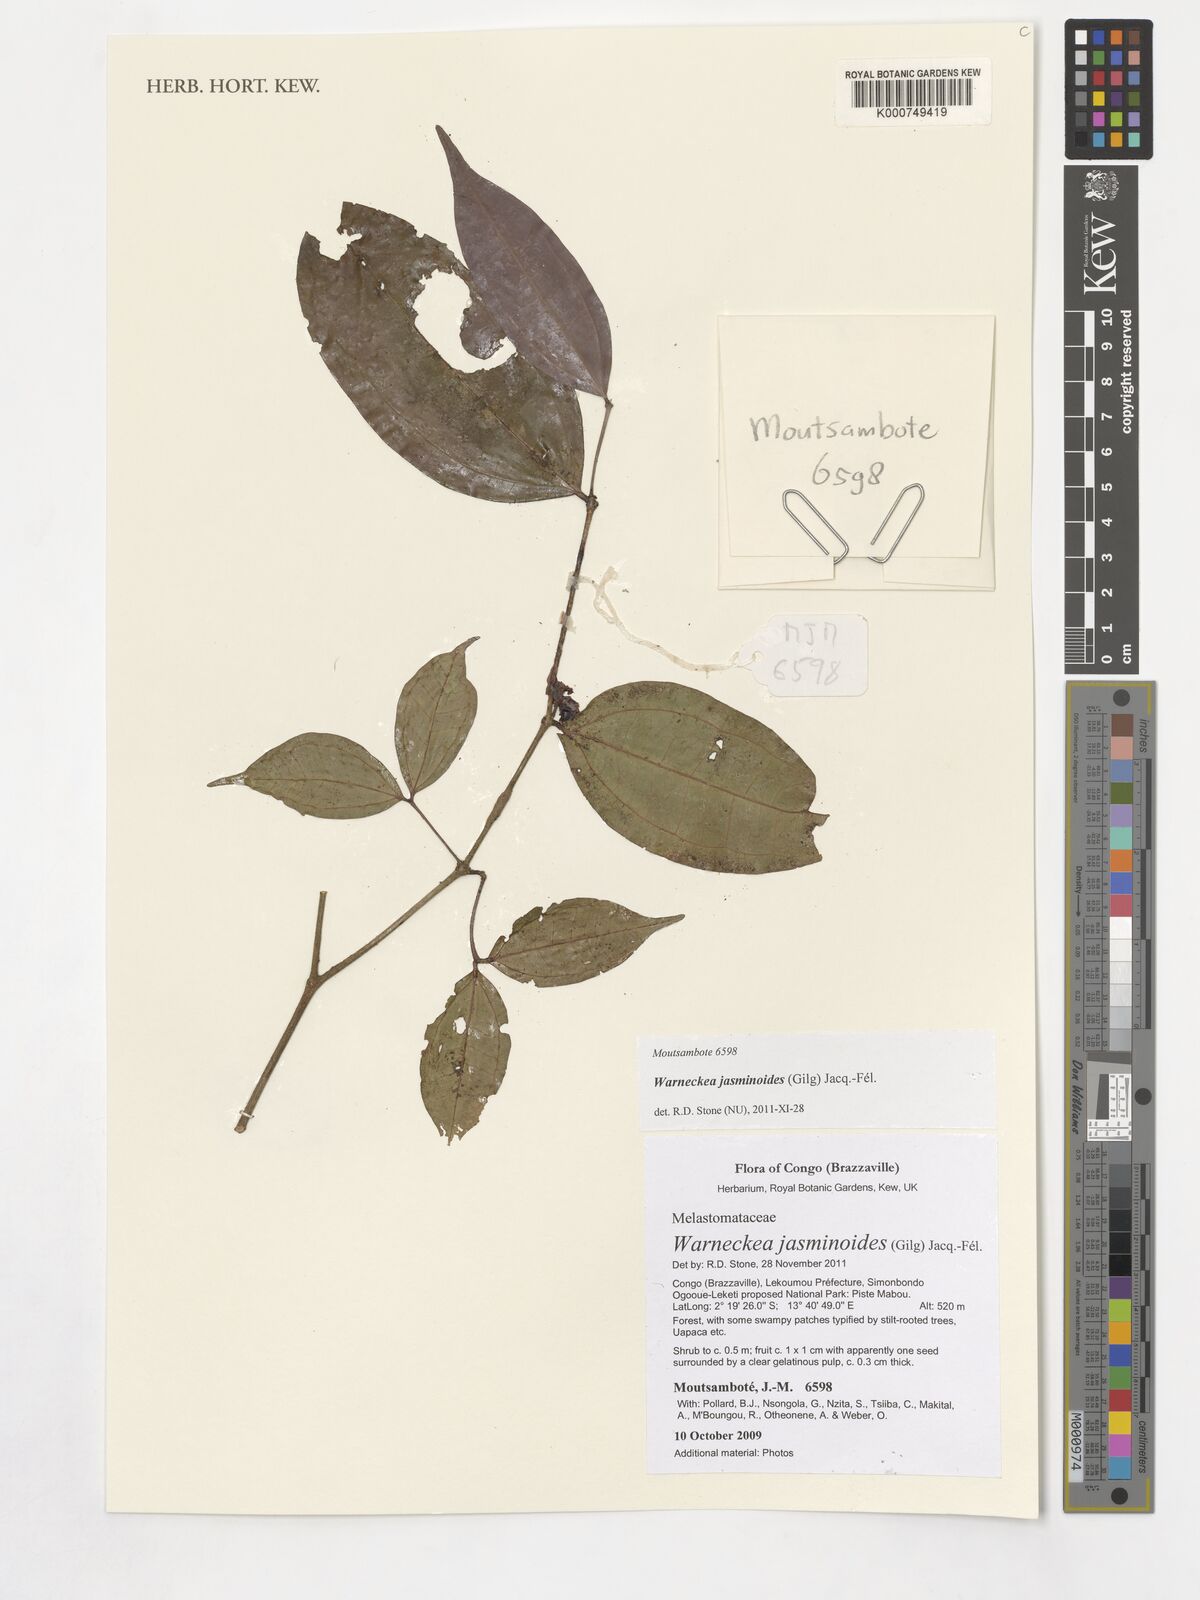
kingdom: Plantae
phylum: Tracheophyta
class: Magnoliopsida
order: Myrtales
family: Melastomataceae
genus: Warneckea
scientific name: Warneckea jasminoides
